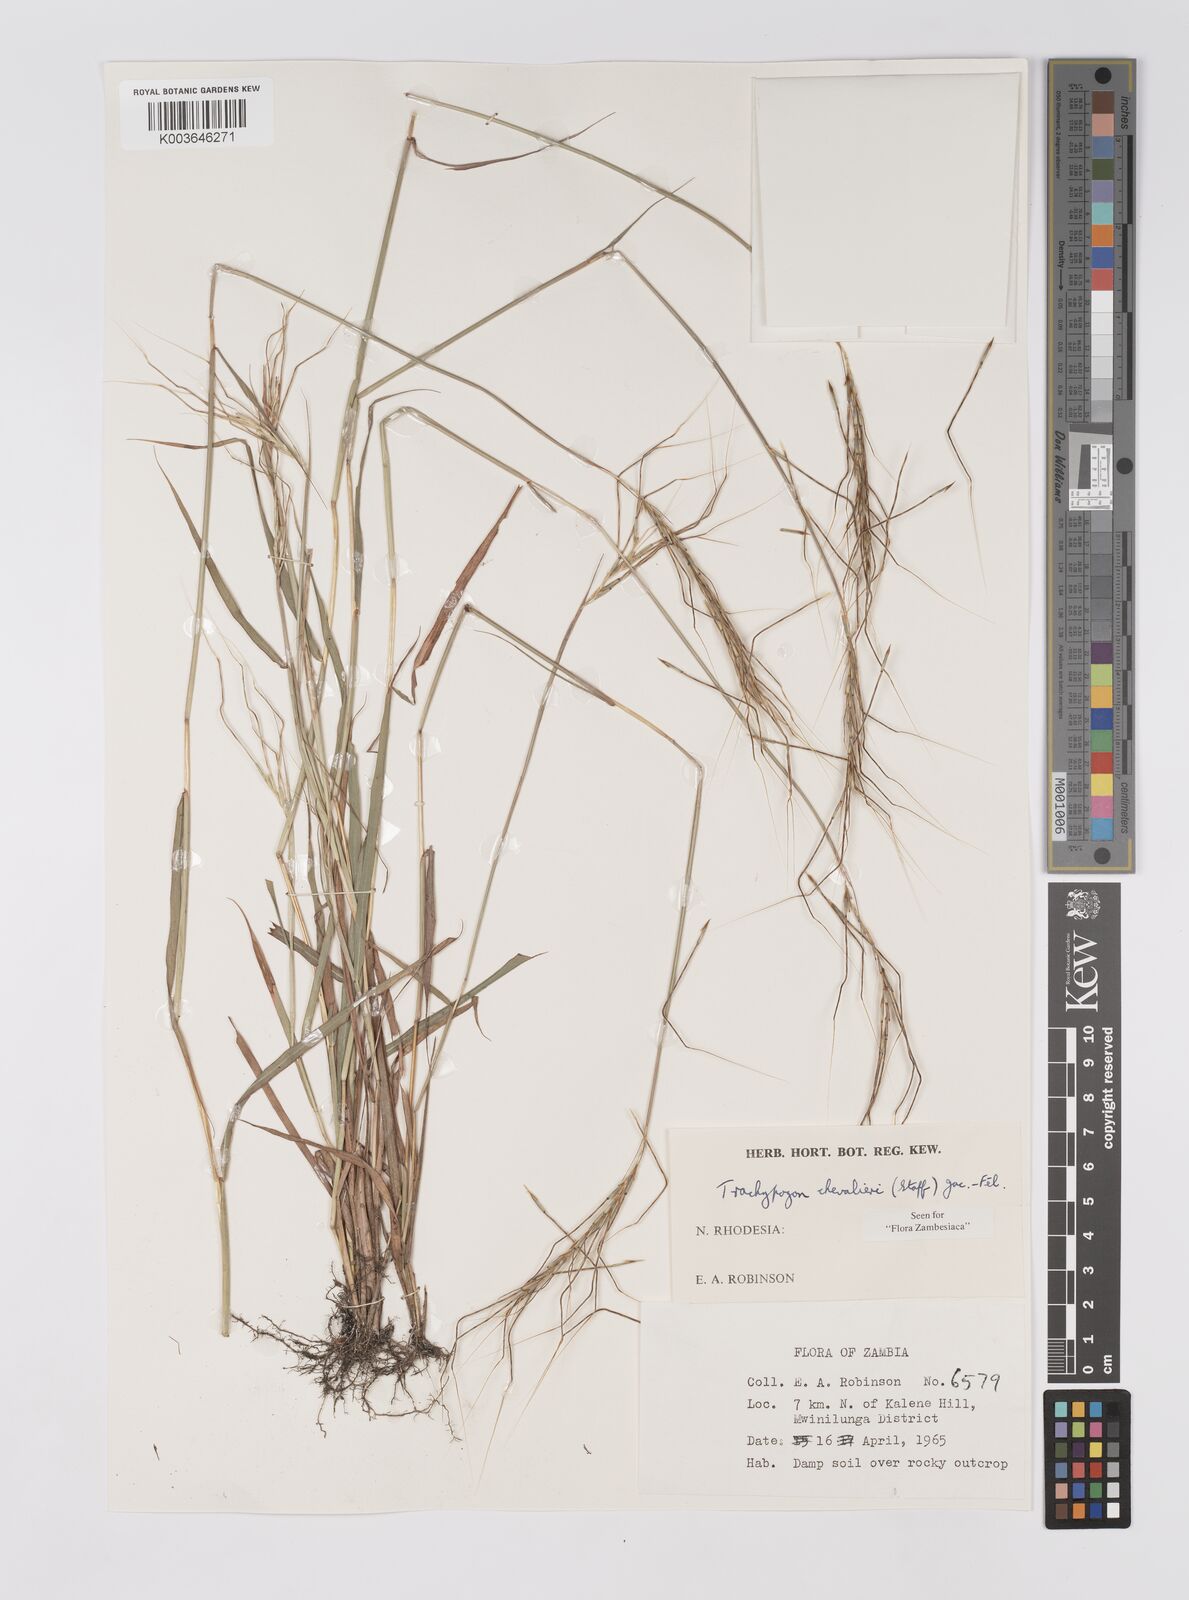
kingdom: Plantae
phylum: Tracheophyta
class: Liliopsida
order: Poales
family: Poaceae
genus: Trachypogon
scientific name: Trachypogon chevalieri
